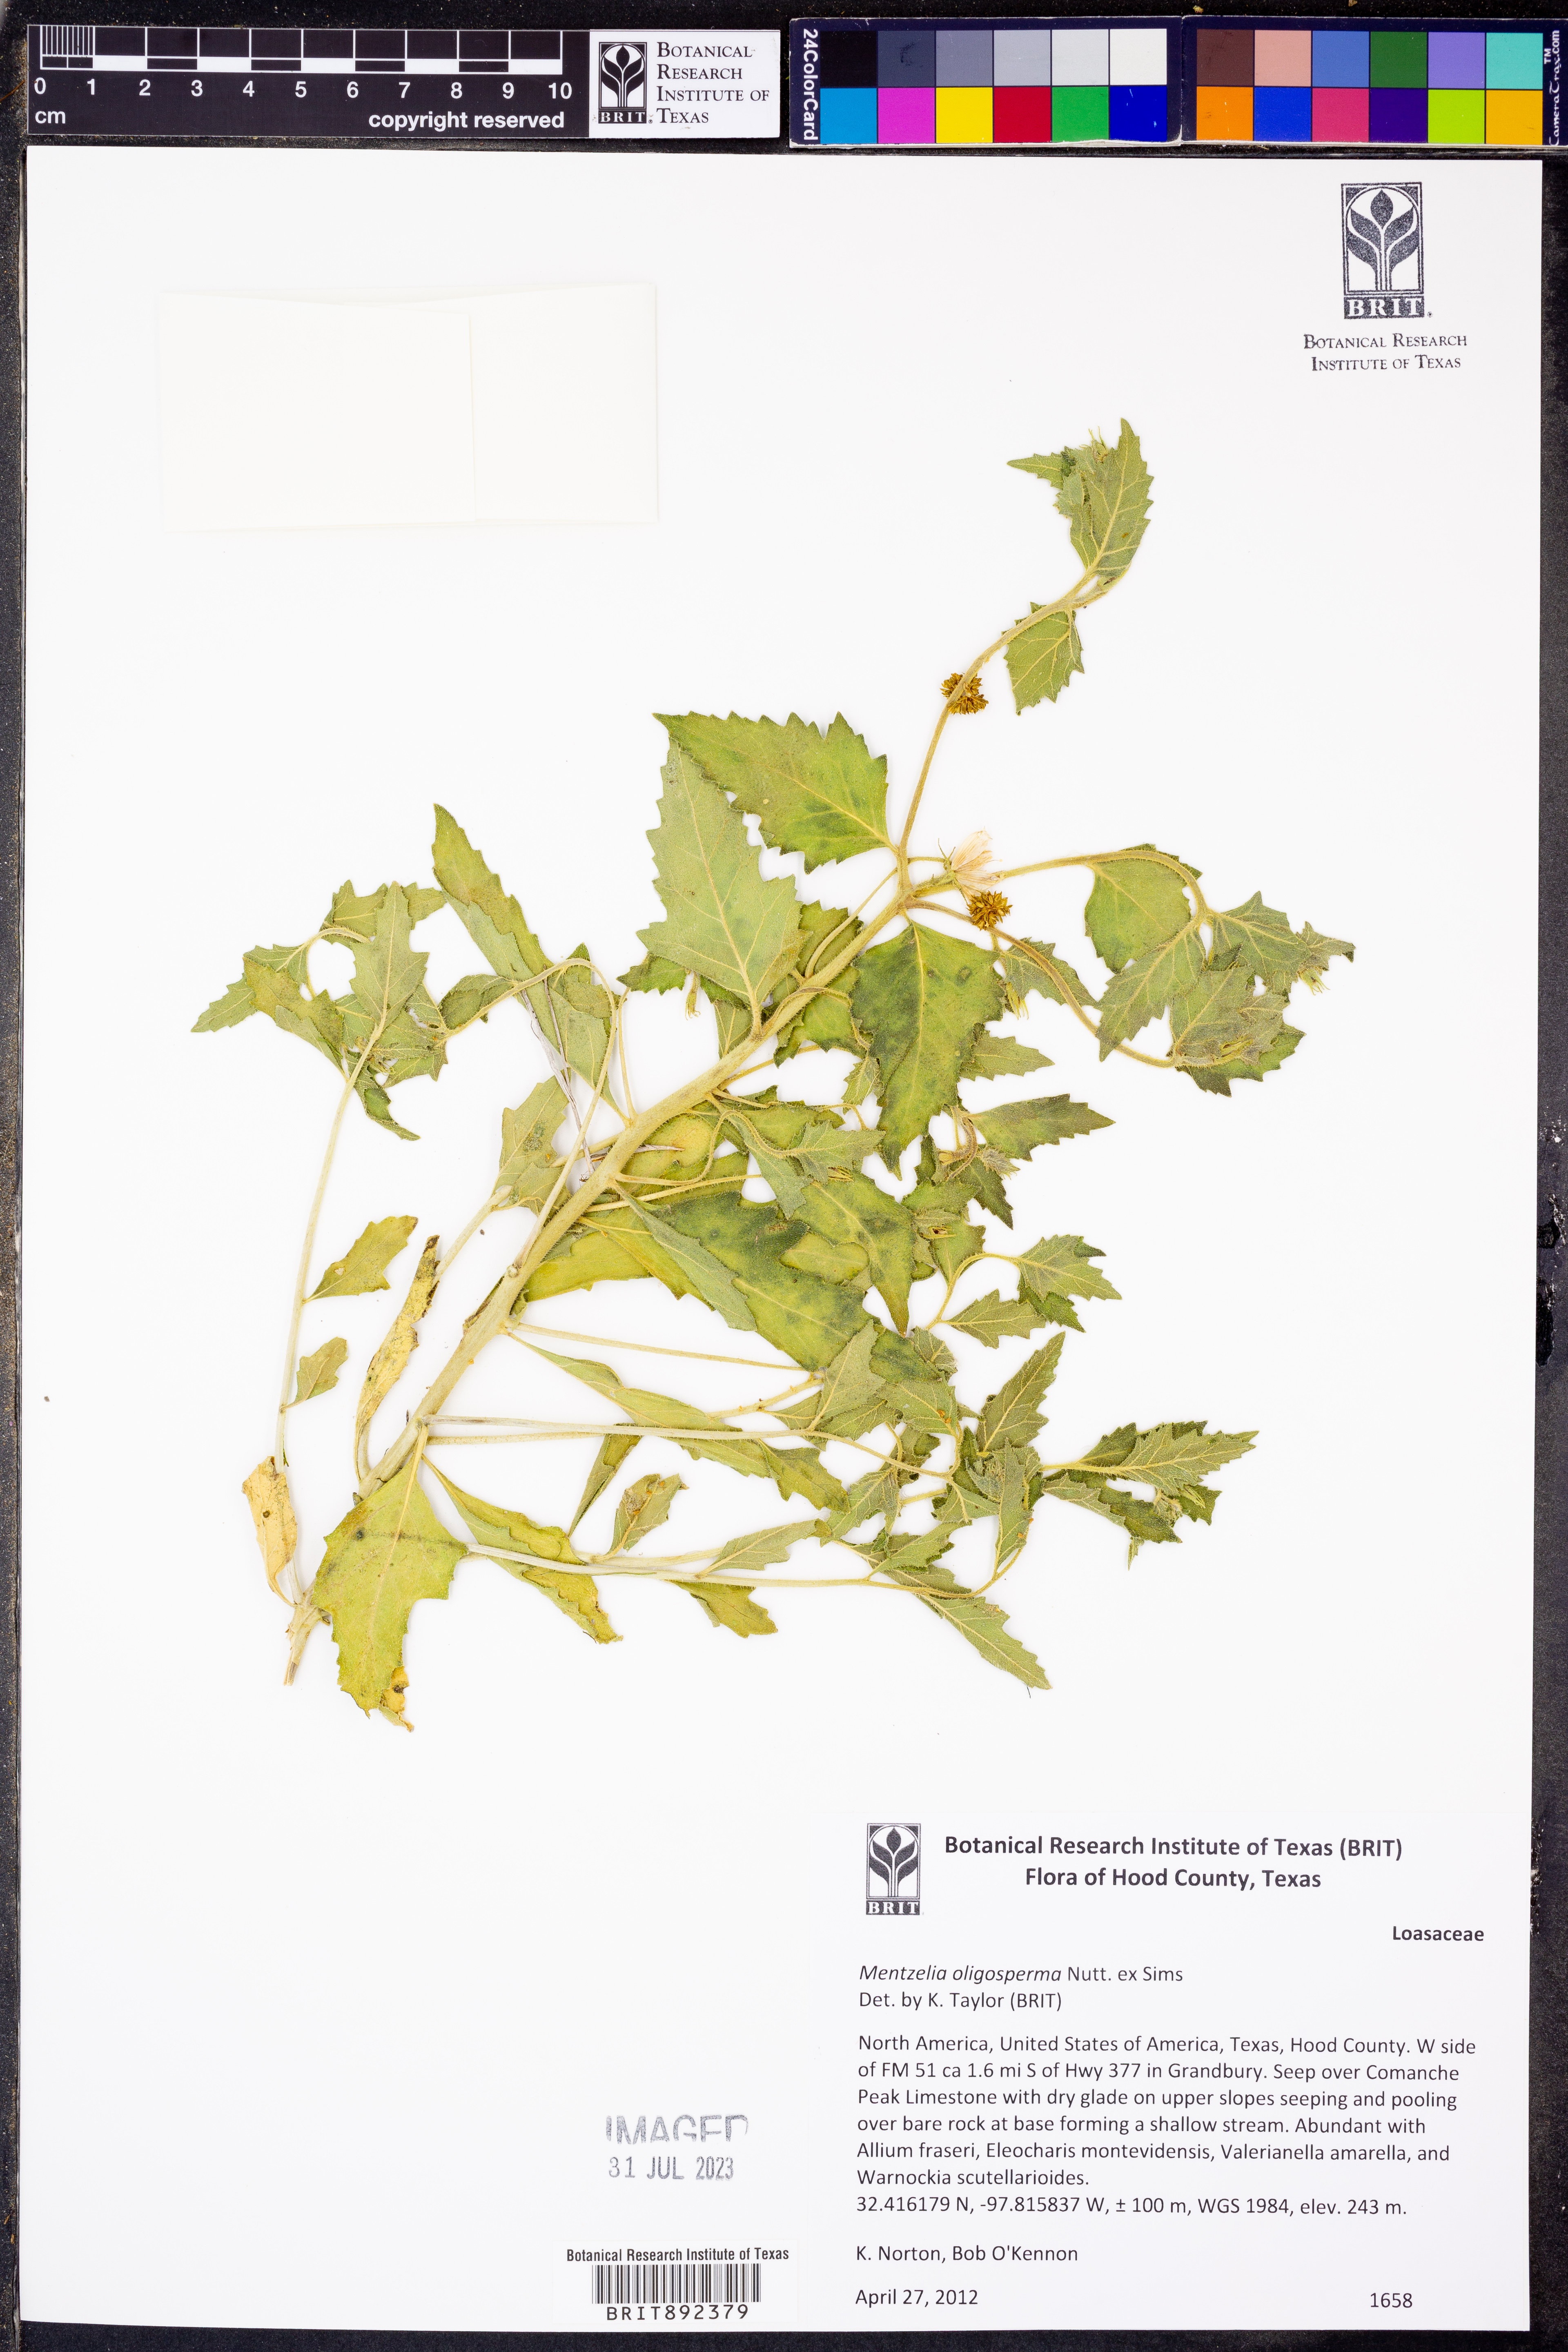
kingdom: Plantae
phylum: Tracheophyta
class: Magnoliopsida
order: Cornales
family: Loasaceae
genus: Mentzelia
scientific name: Mentzelia oligosperma
